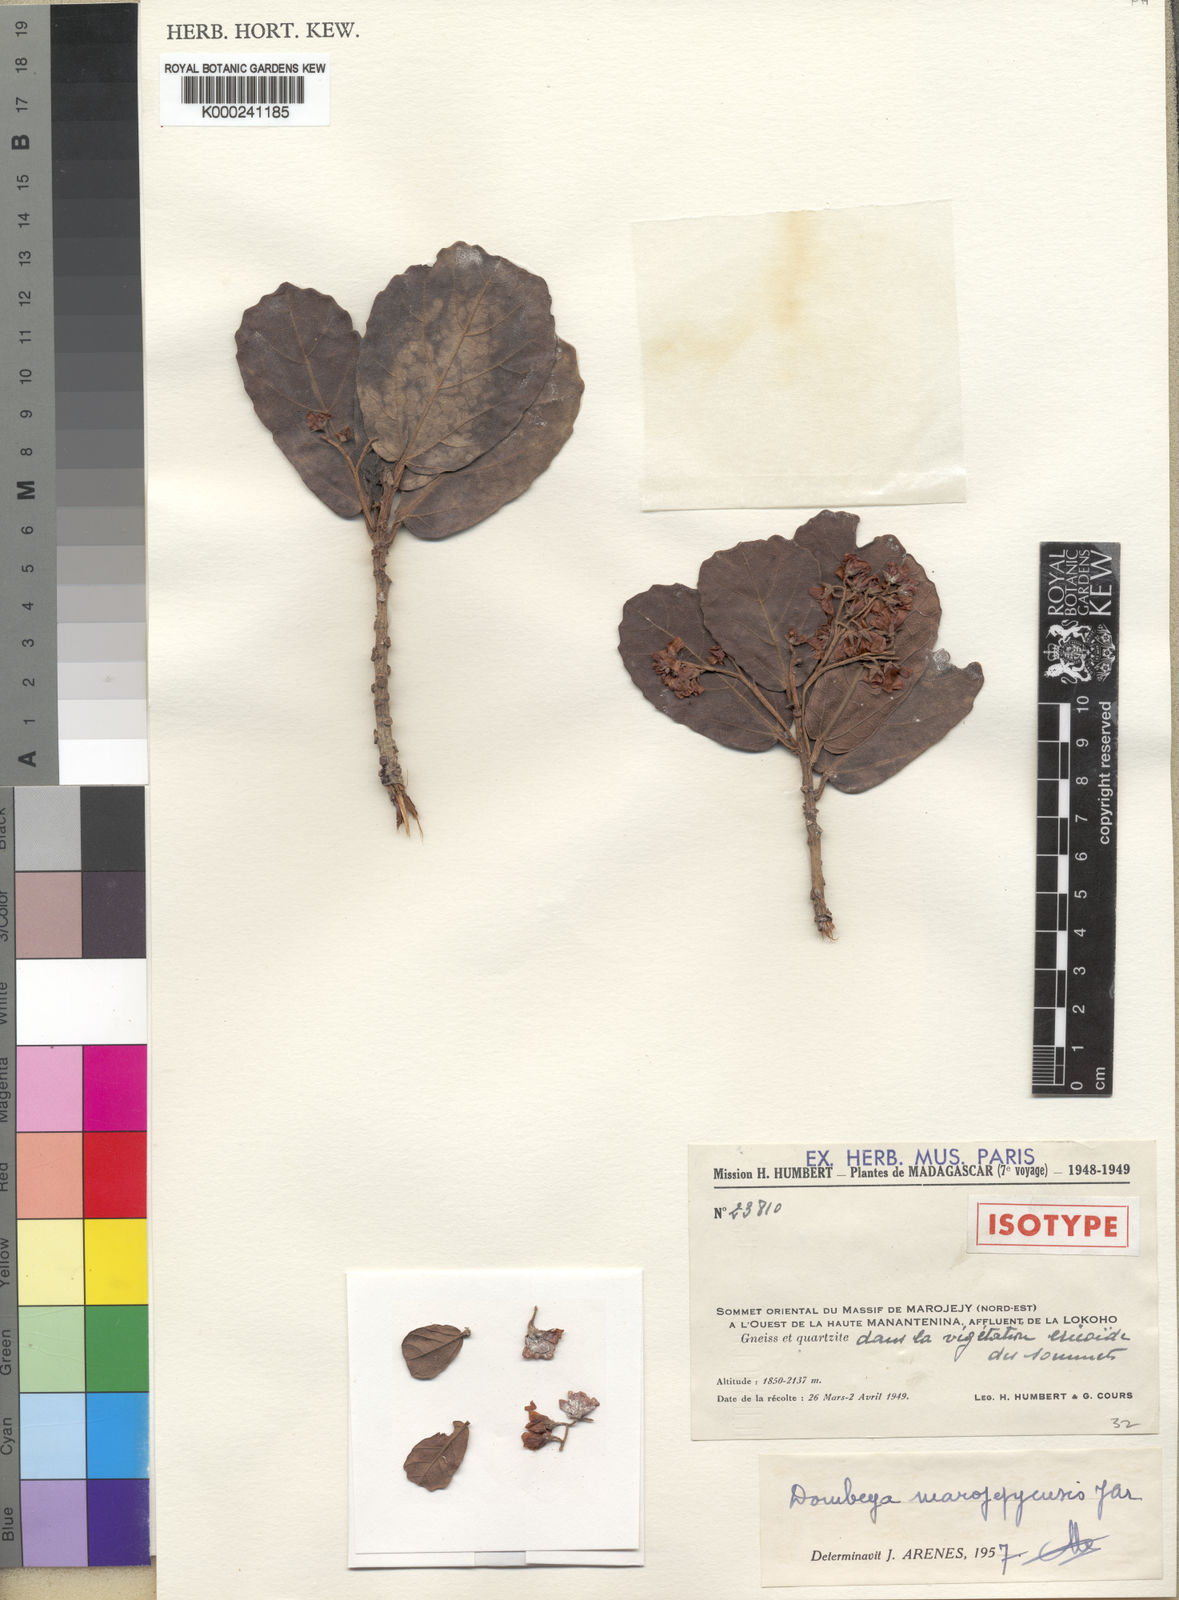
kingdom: Plantae
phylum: Tracheophyta
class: Magnoliopsida
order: Malvales
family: Malvaceae
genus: Dombeya
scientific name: Dombeya marojejyensis
